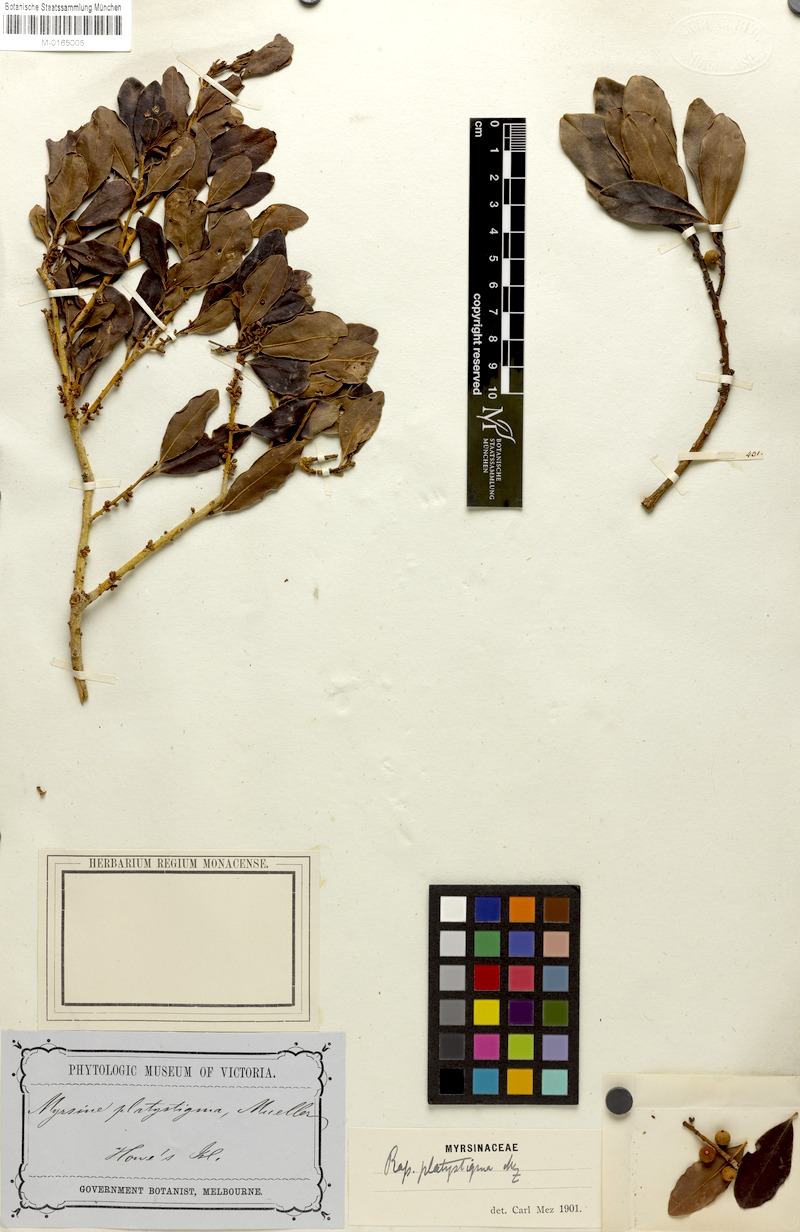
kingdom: Plantae
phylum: Tracheophyta
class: Magnoliopsida
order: Ericales
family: Primulaceae
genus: Myrsine
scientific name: Myrsine platystigma
